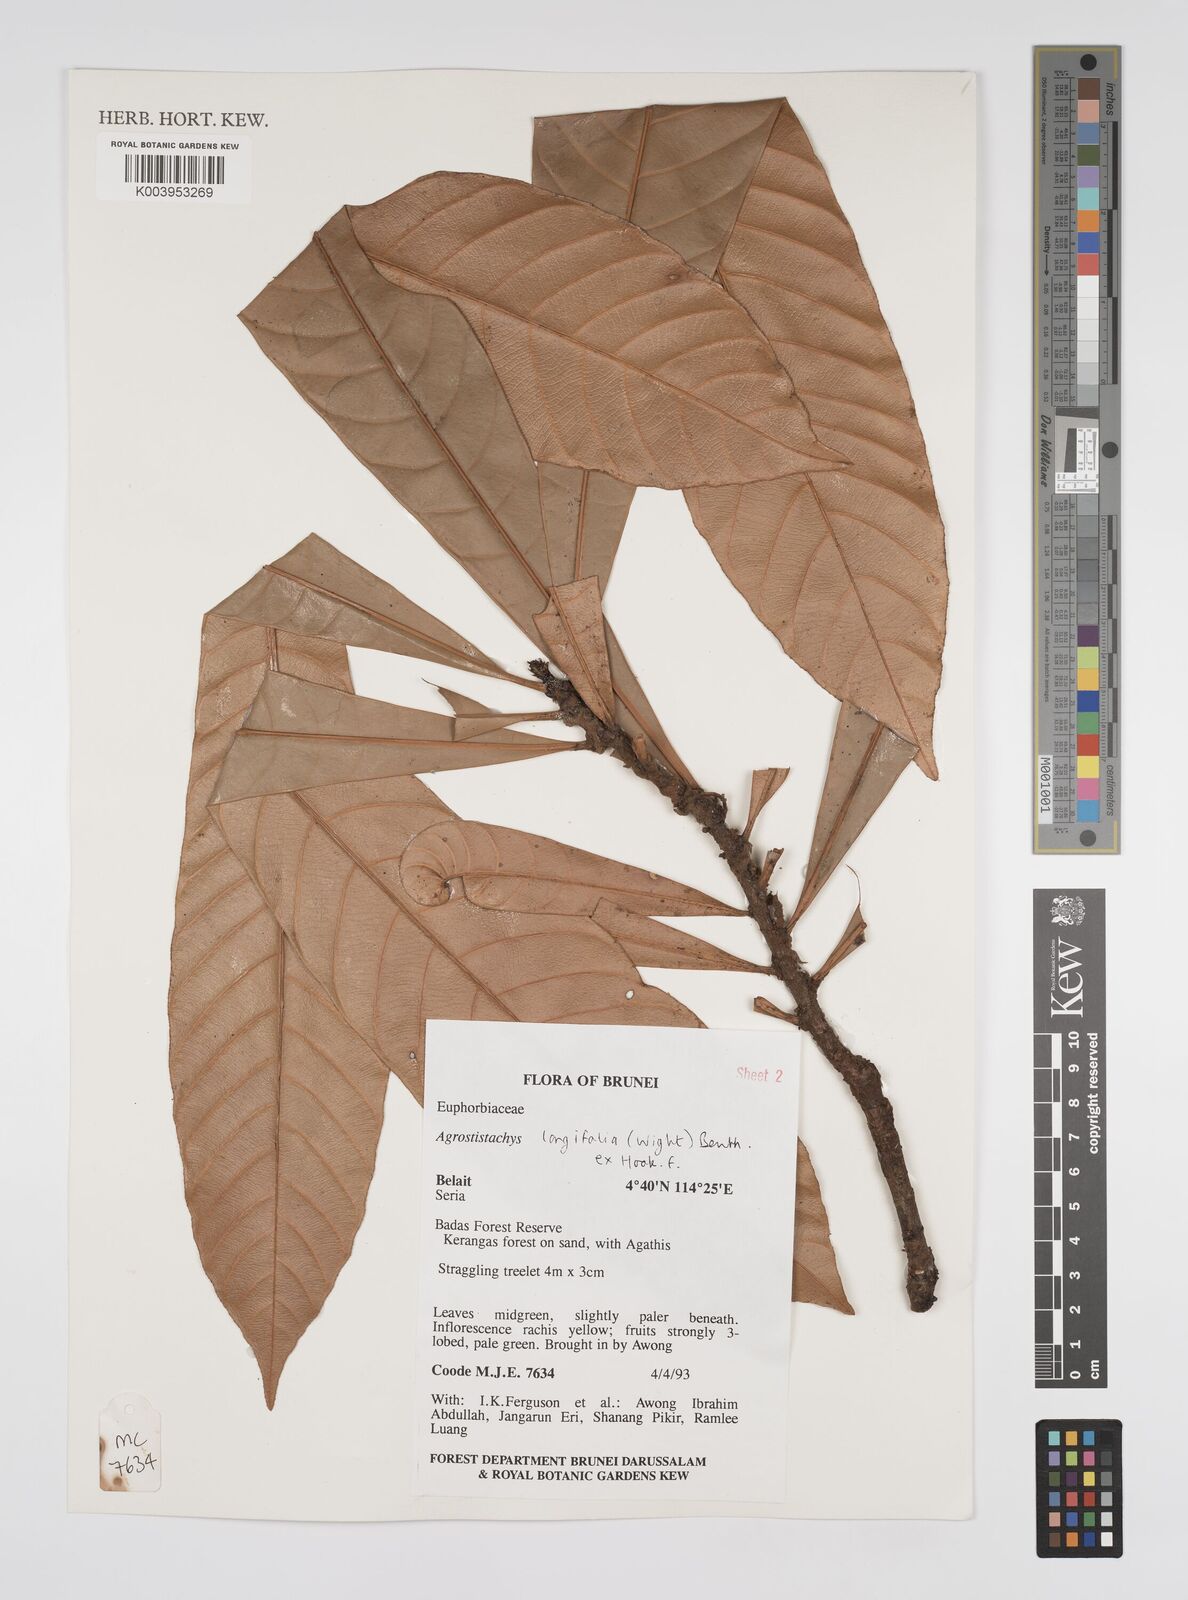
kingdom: Plantae
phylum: Tracheophyta
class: Magnoliopsida
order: Malpighiales
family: Euphorbiaceae
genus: Agrostistachys
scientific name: Agrostistachys borneensis
